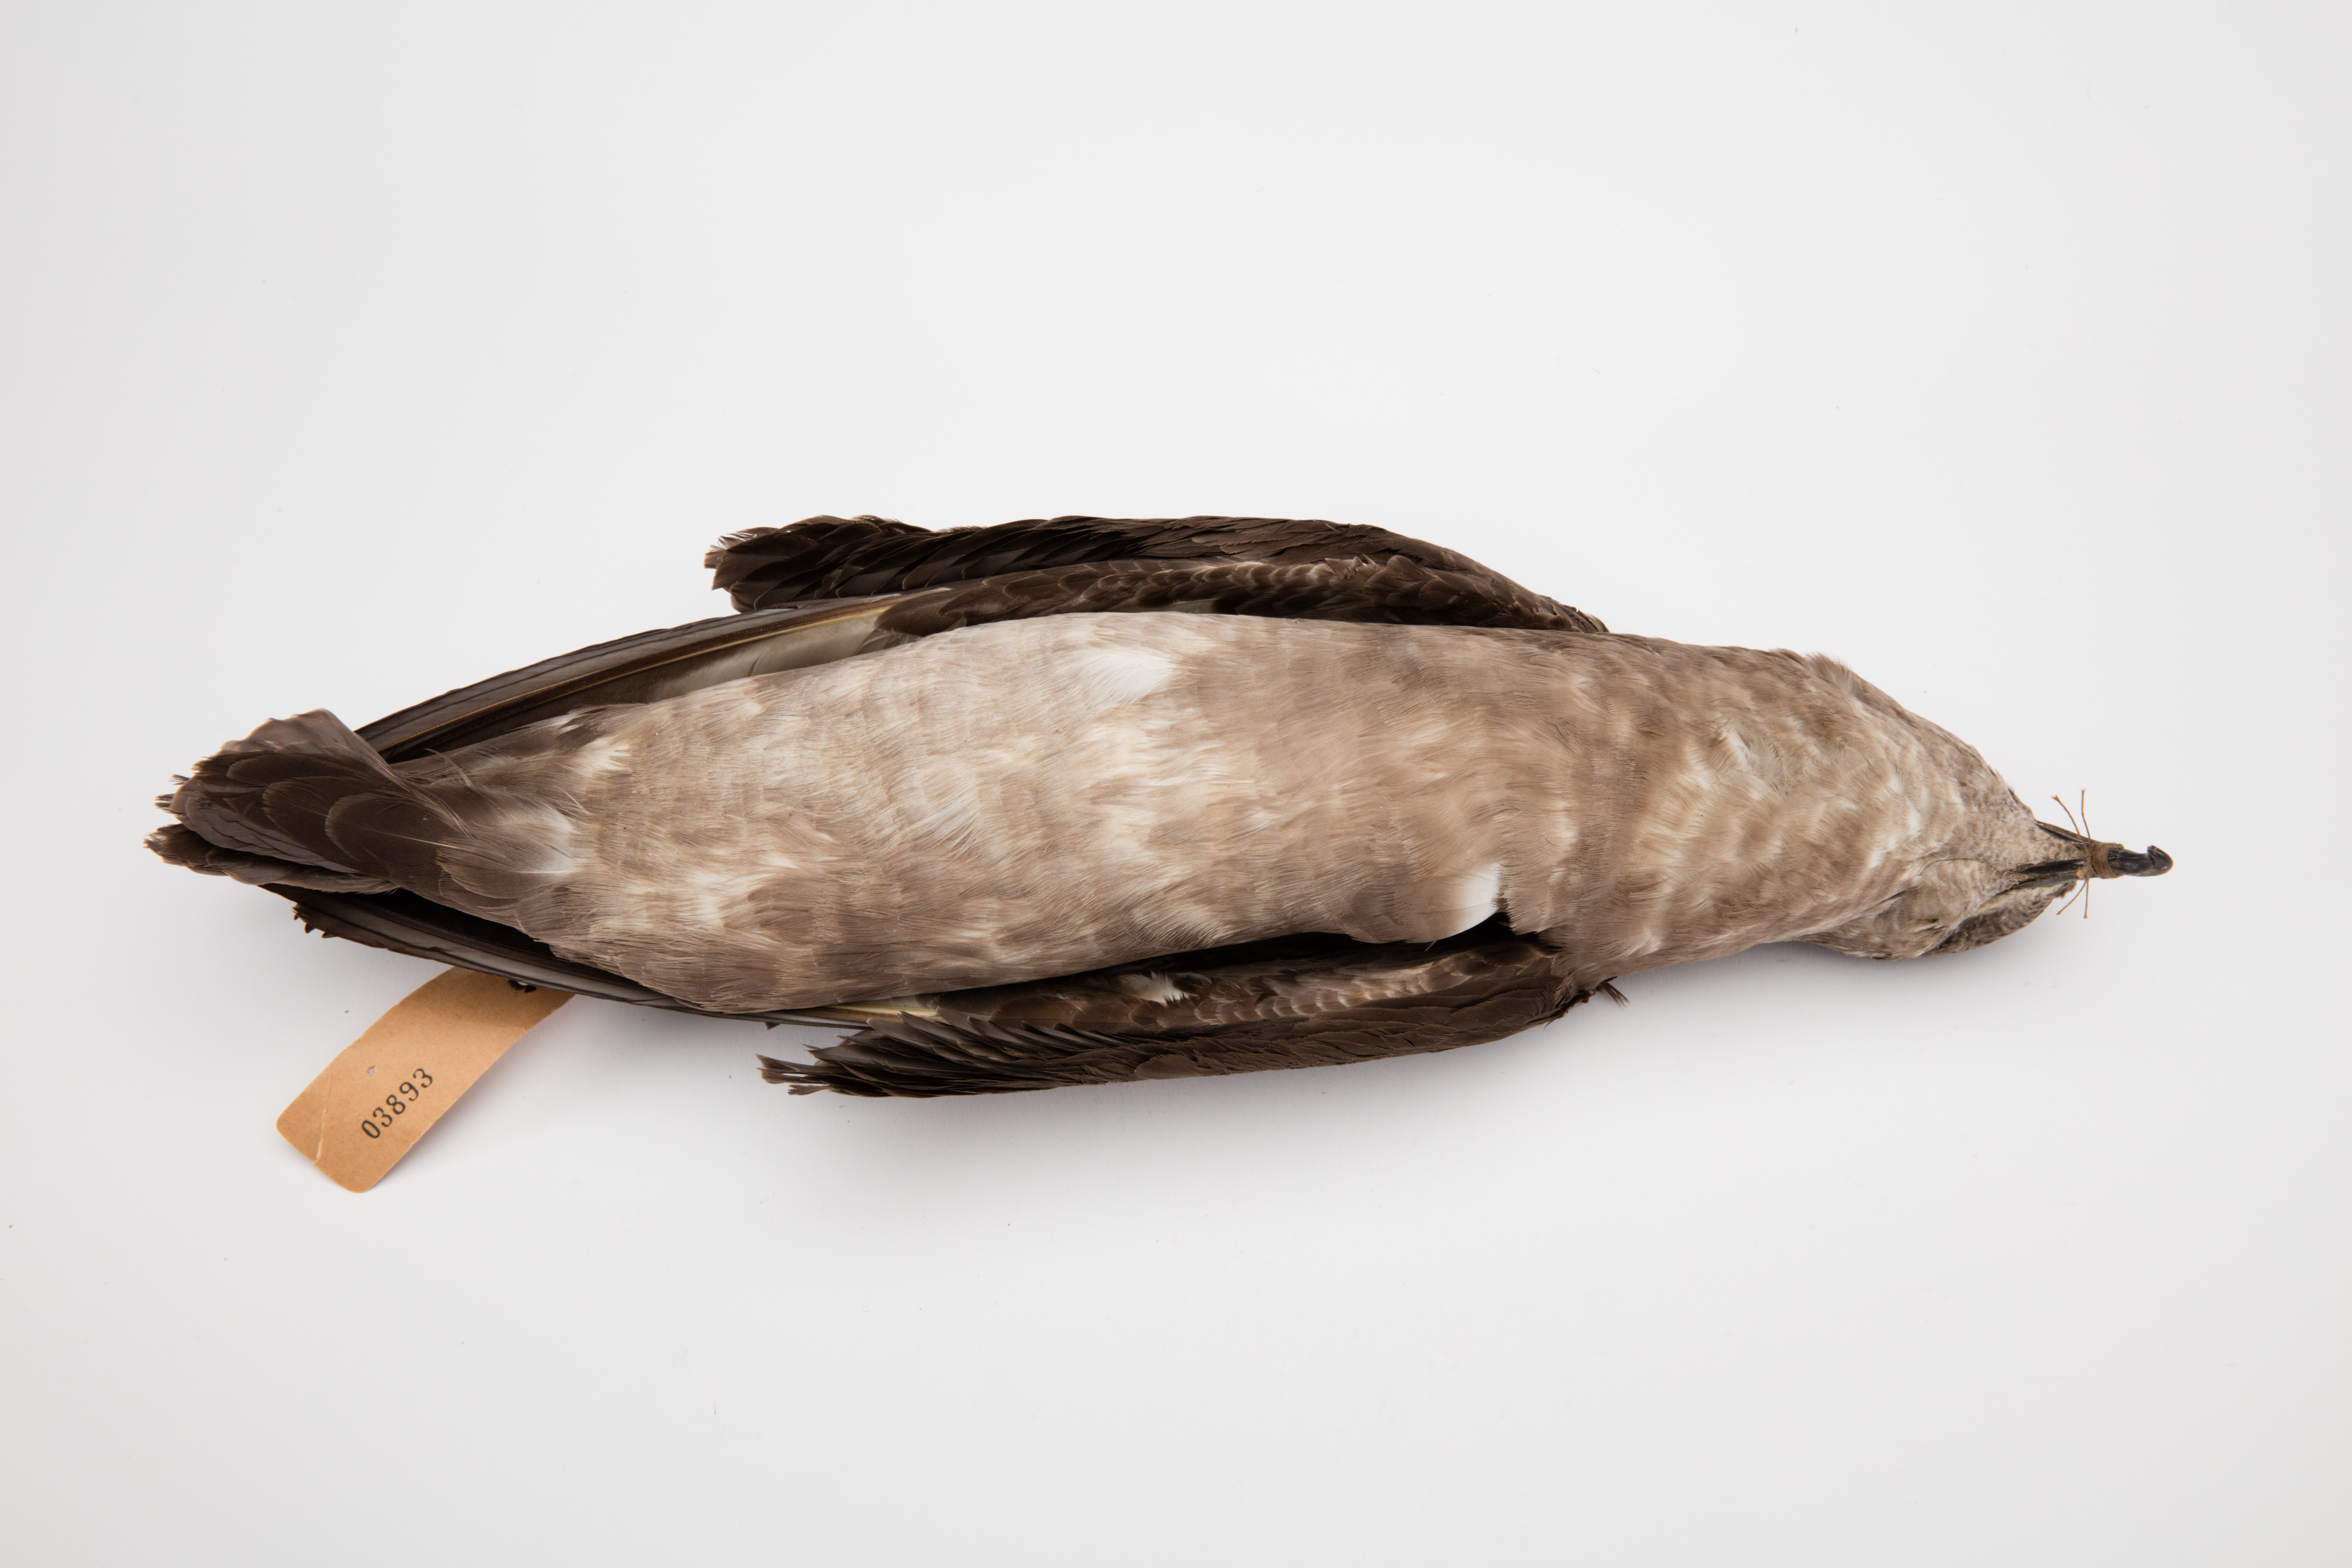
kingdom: Animalia
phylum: Chordata
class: Aves
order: Procellariiformes
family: Procellariidae
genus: Pterodroma
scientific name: Pterodroma neglecta
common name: Kermadec petrel
